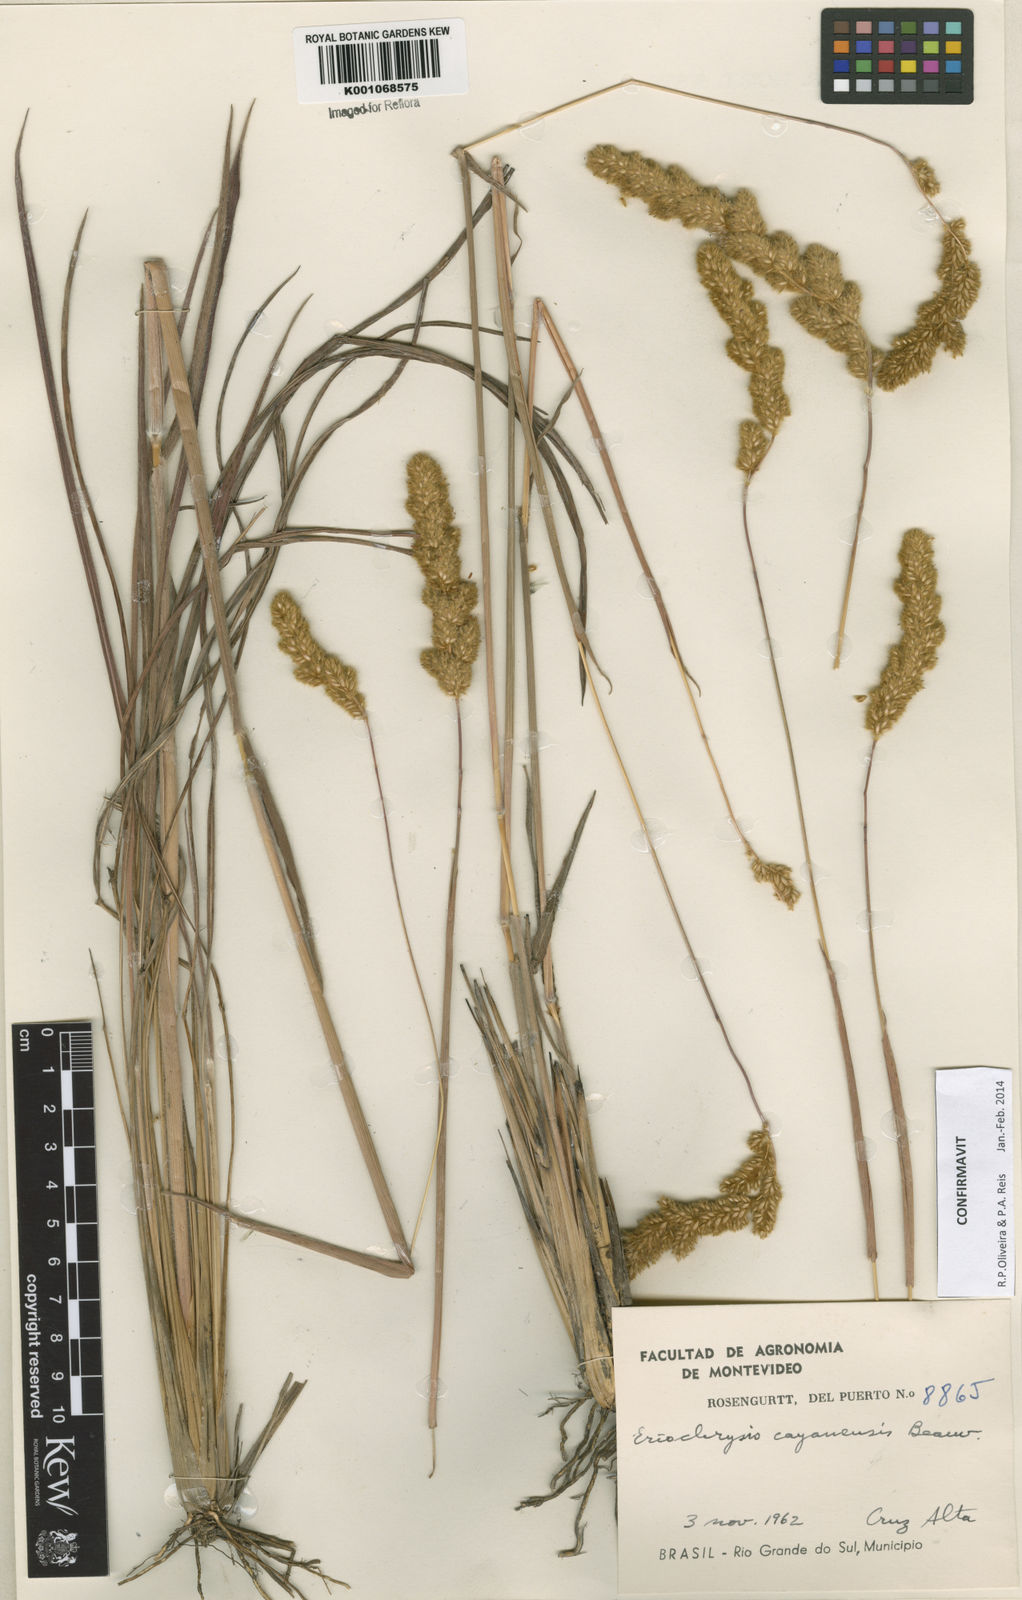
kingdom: Plantae
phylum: Tracheophyta
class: Liliopsida
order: Poales
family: Poaceae
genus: Eriochrysis
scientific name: Eriochrysis cayennensis
